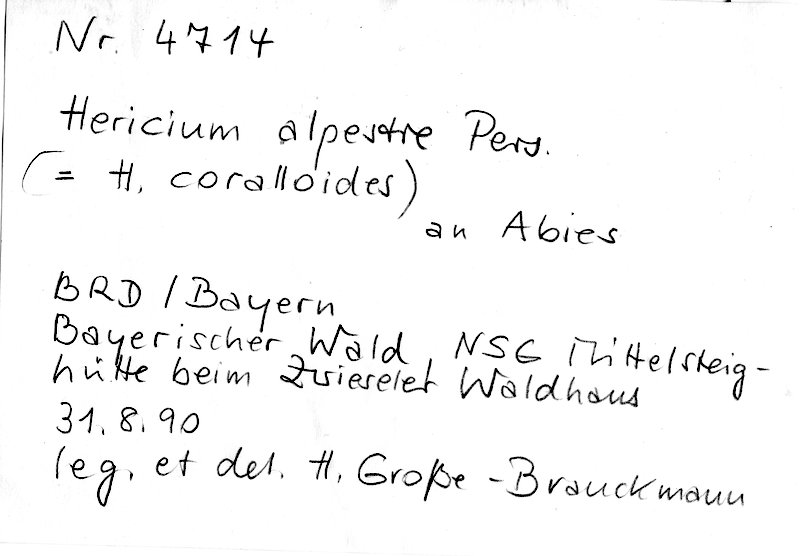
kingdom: Fungi
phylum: Basidiomycota
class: Agaricomycetes
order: Russulales
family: Hericiaceae
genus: Hericium
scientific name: Hericium flagellum
